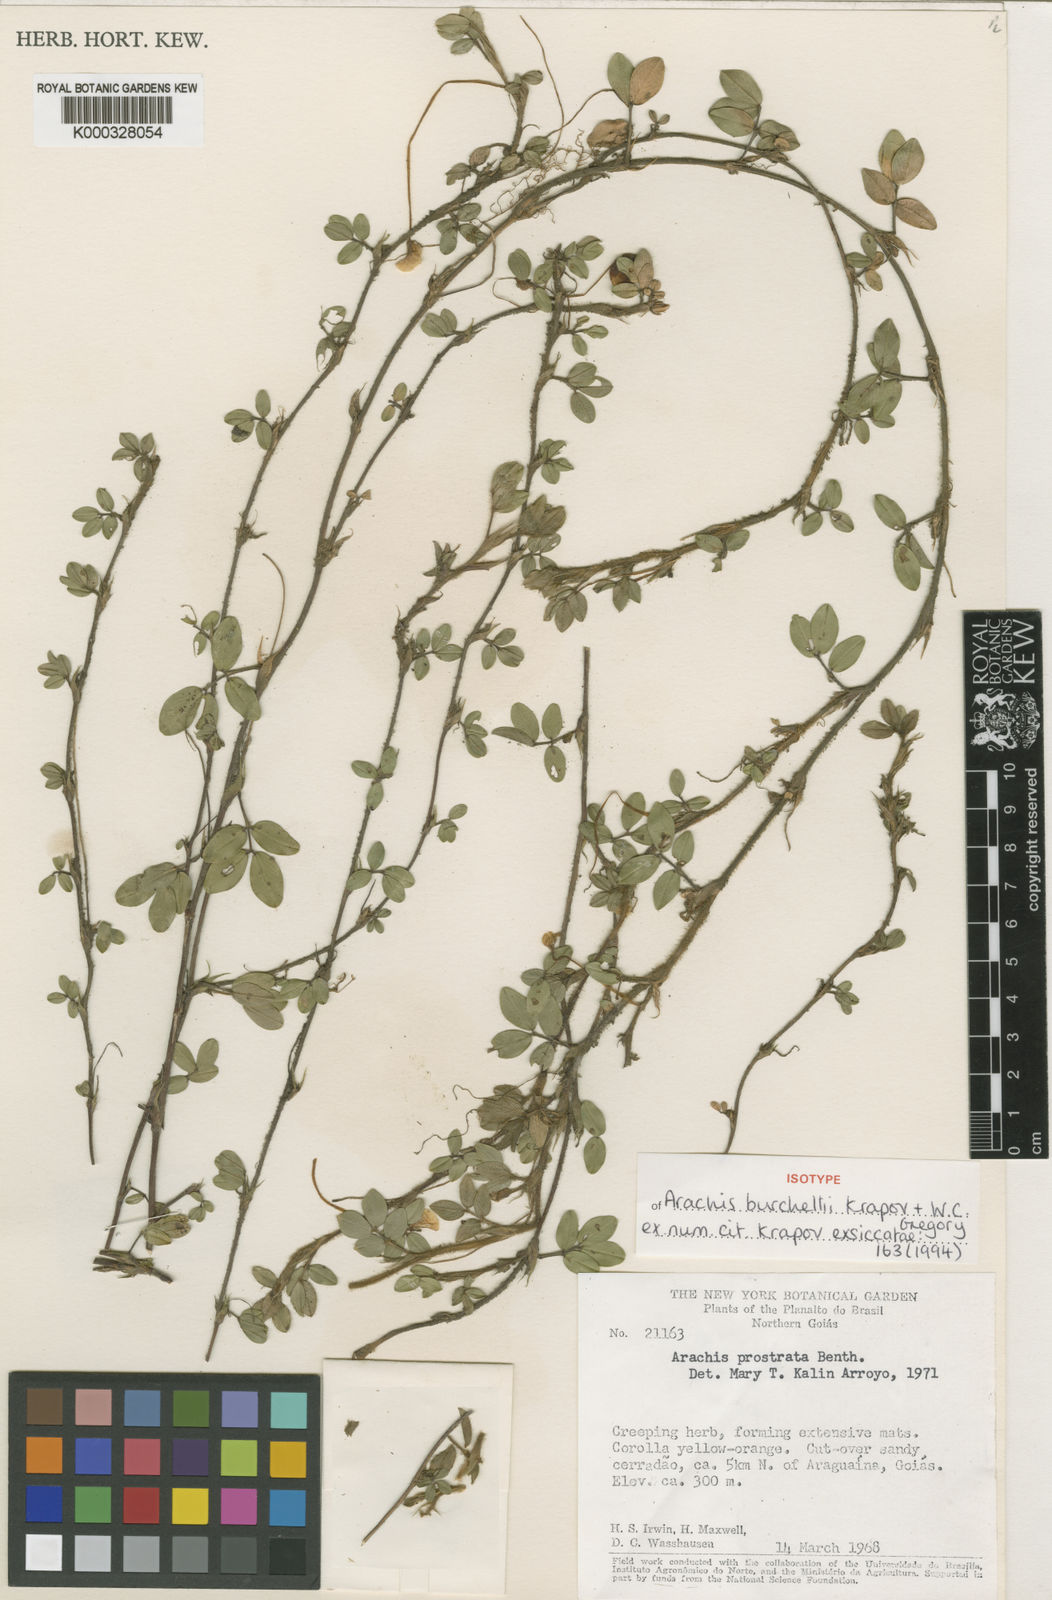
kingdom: Plantae
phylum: Tracheophyta
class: Magnoliopsida
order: Fabales
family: Fabaceae
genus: Arachis
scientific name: Arachis burchellii
